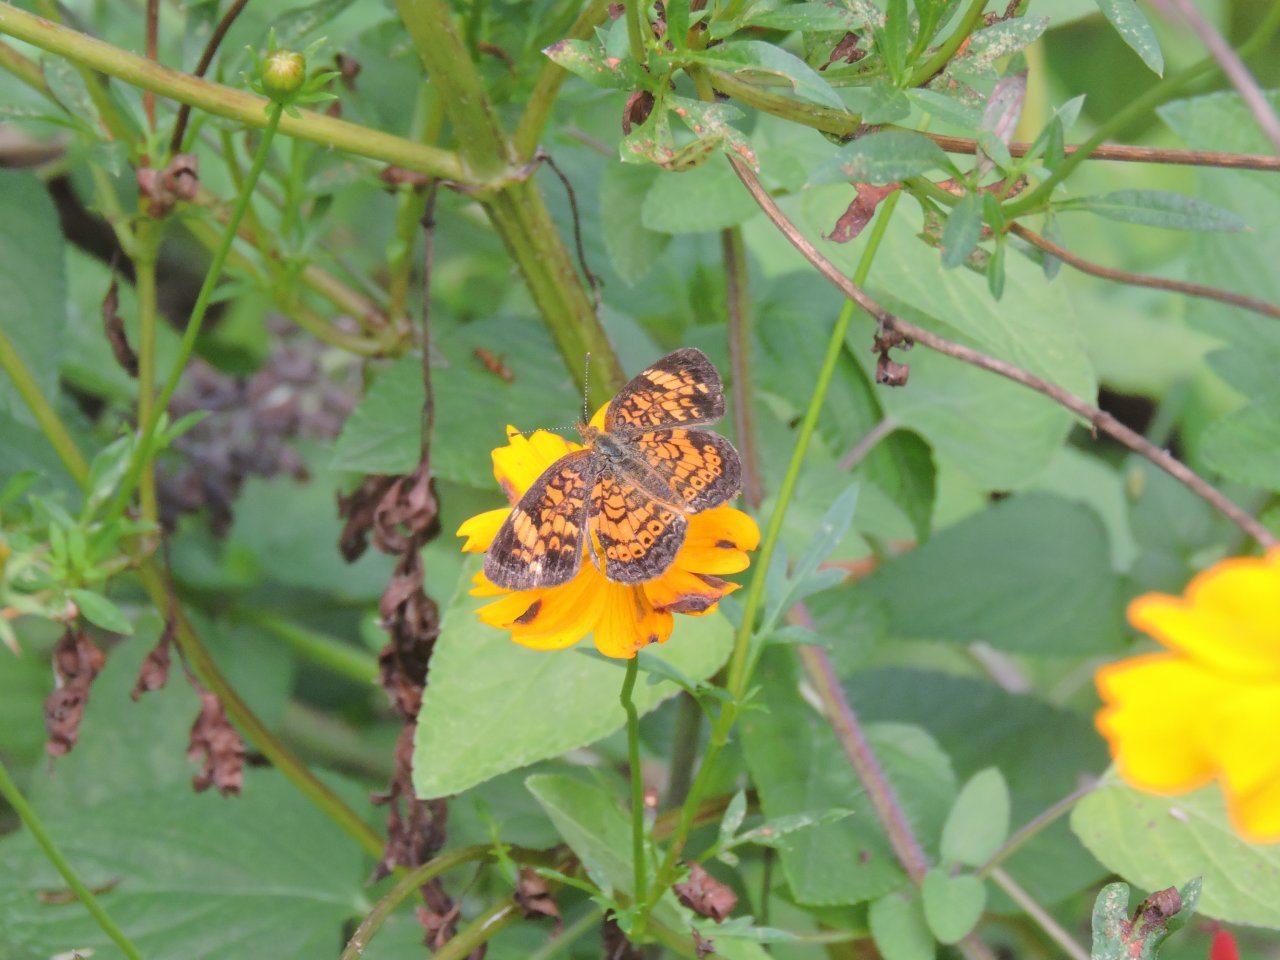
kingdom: Animalia
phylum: Arthropoda
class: Insecta
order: Lepidoptera
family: Nymphalidae
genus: Phyciodes
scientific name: Phyciodes tharos
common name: Pearl Crescent
